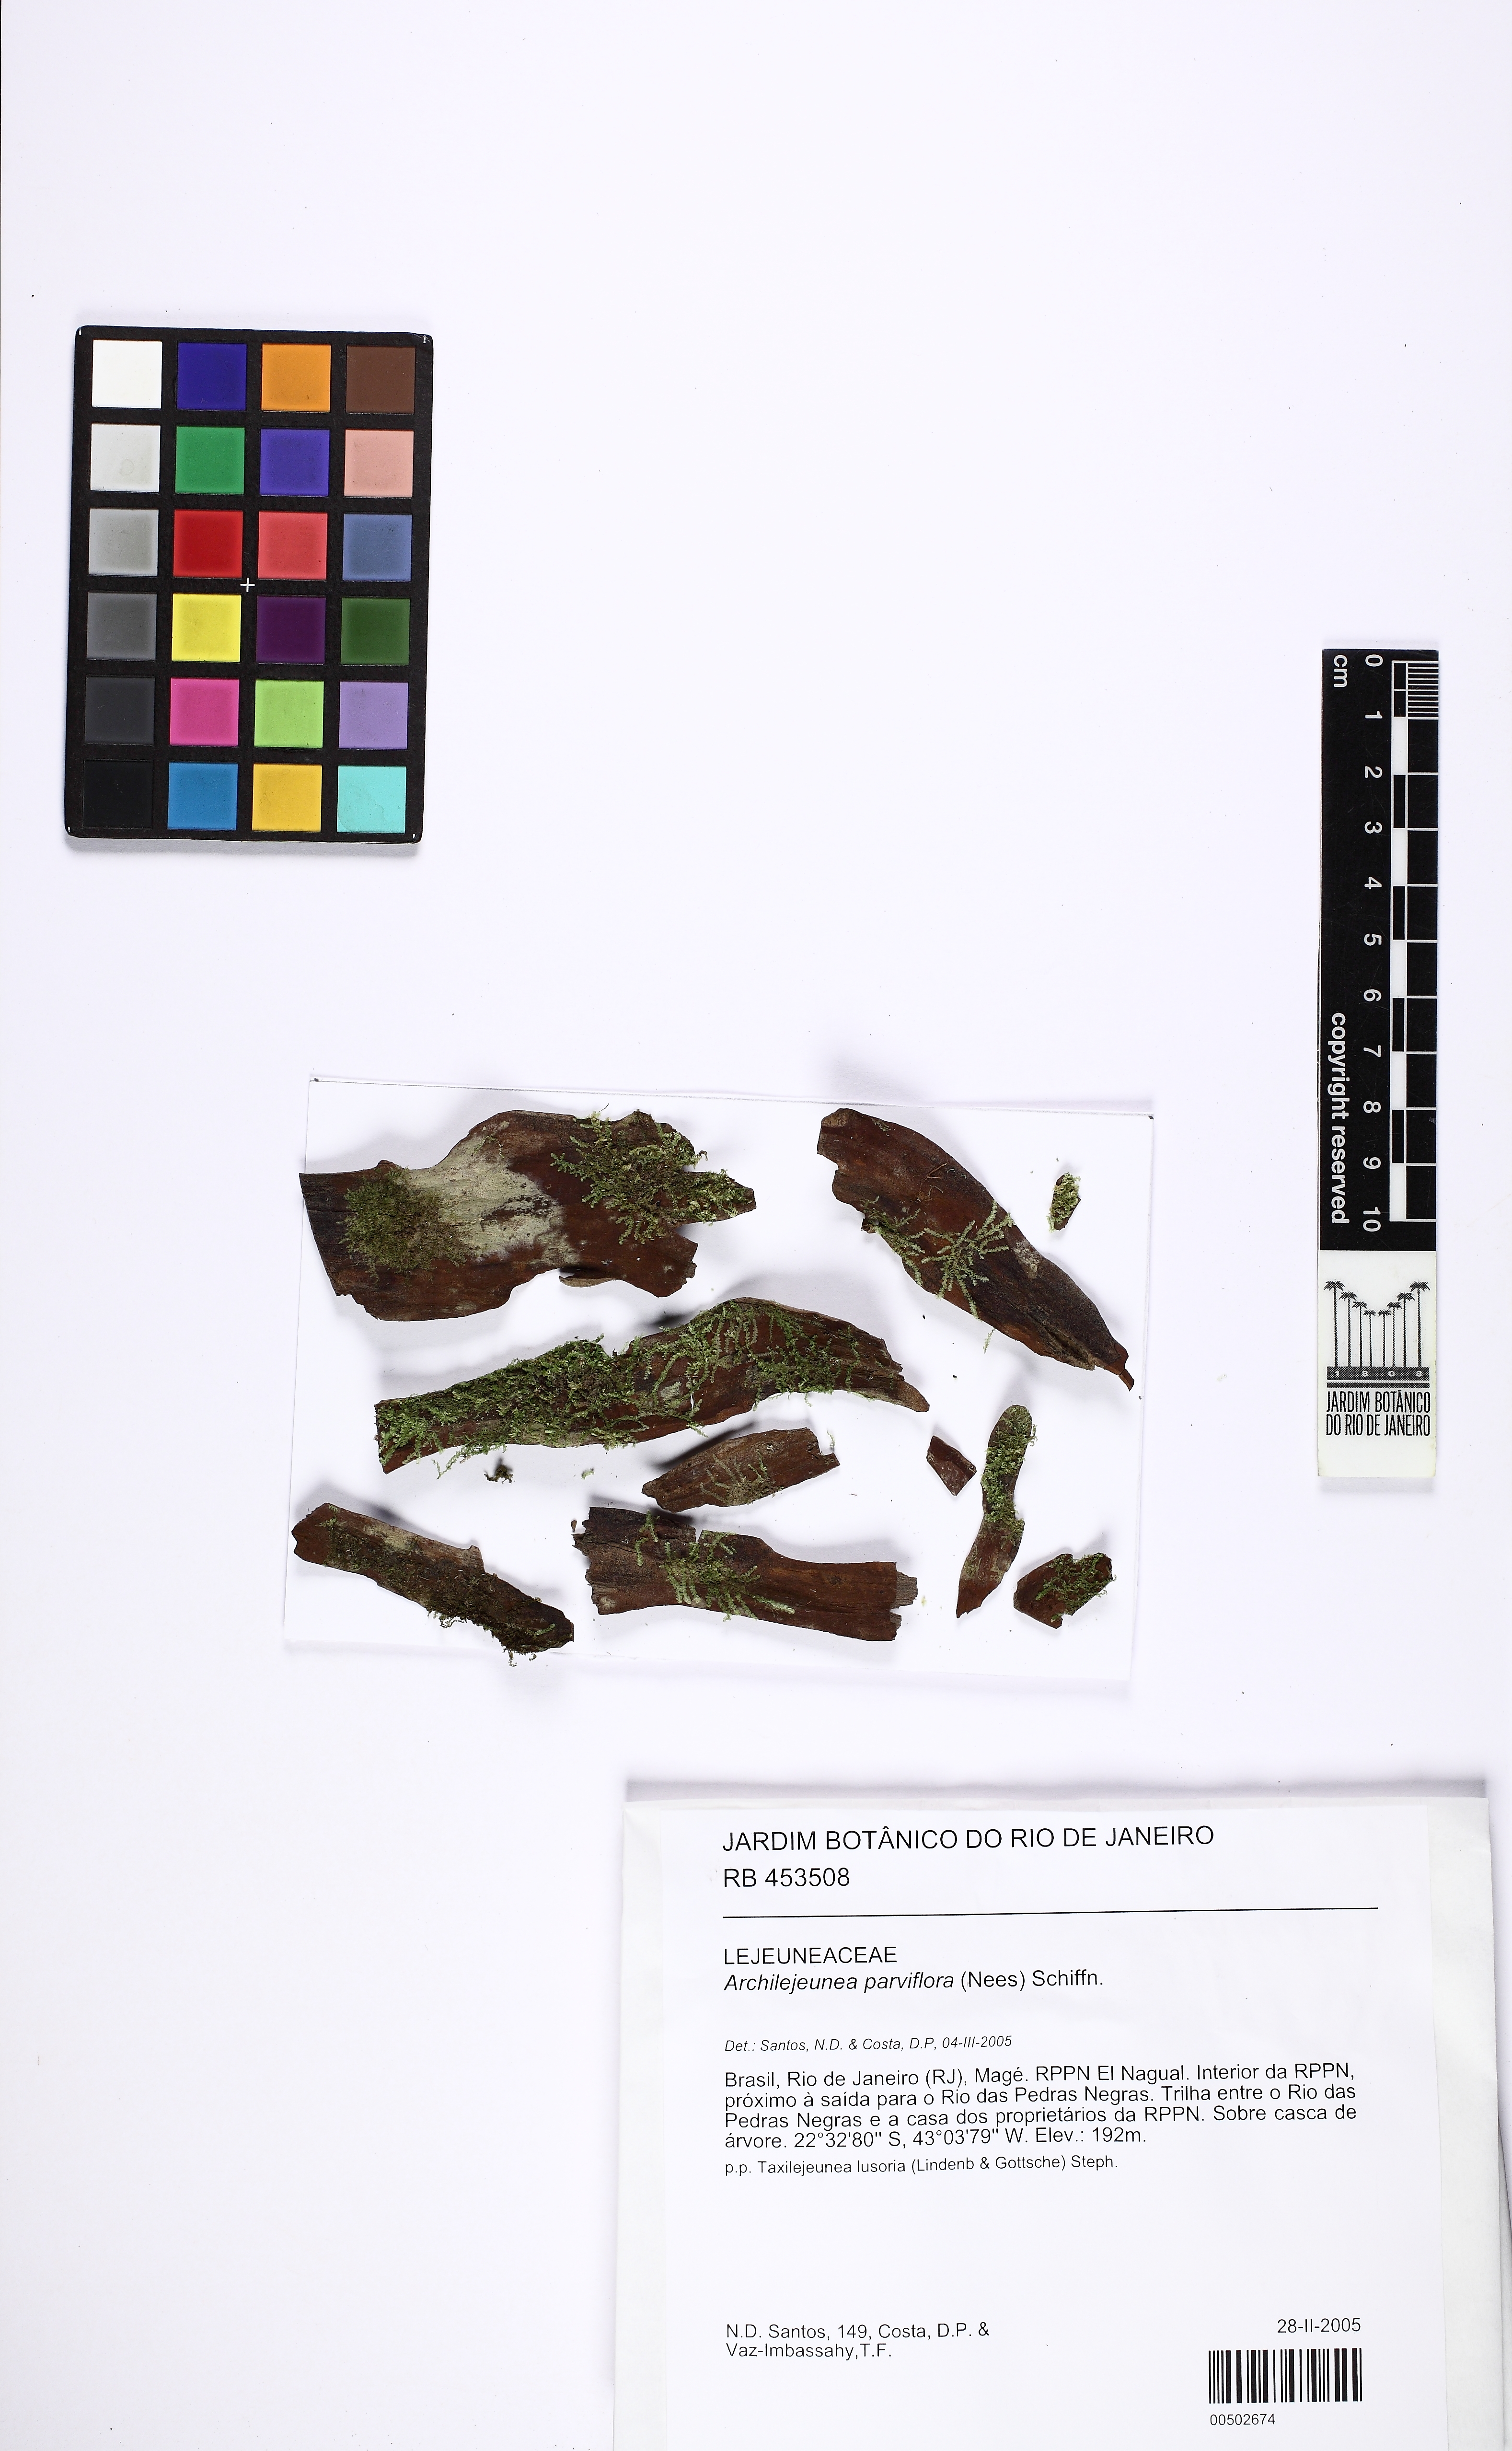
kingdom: Plantae
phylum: Marchantiophyta
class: Jungermanniopsida
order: Porellales
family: Lejeuneaceae
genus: Dibrachiella
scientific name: Dibrachiella parviflora
